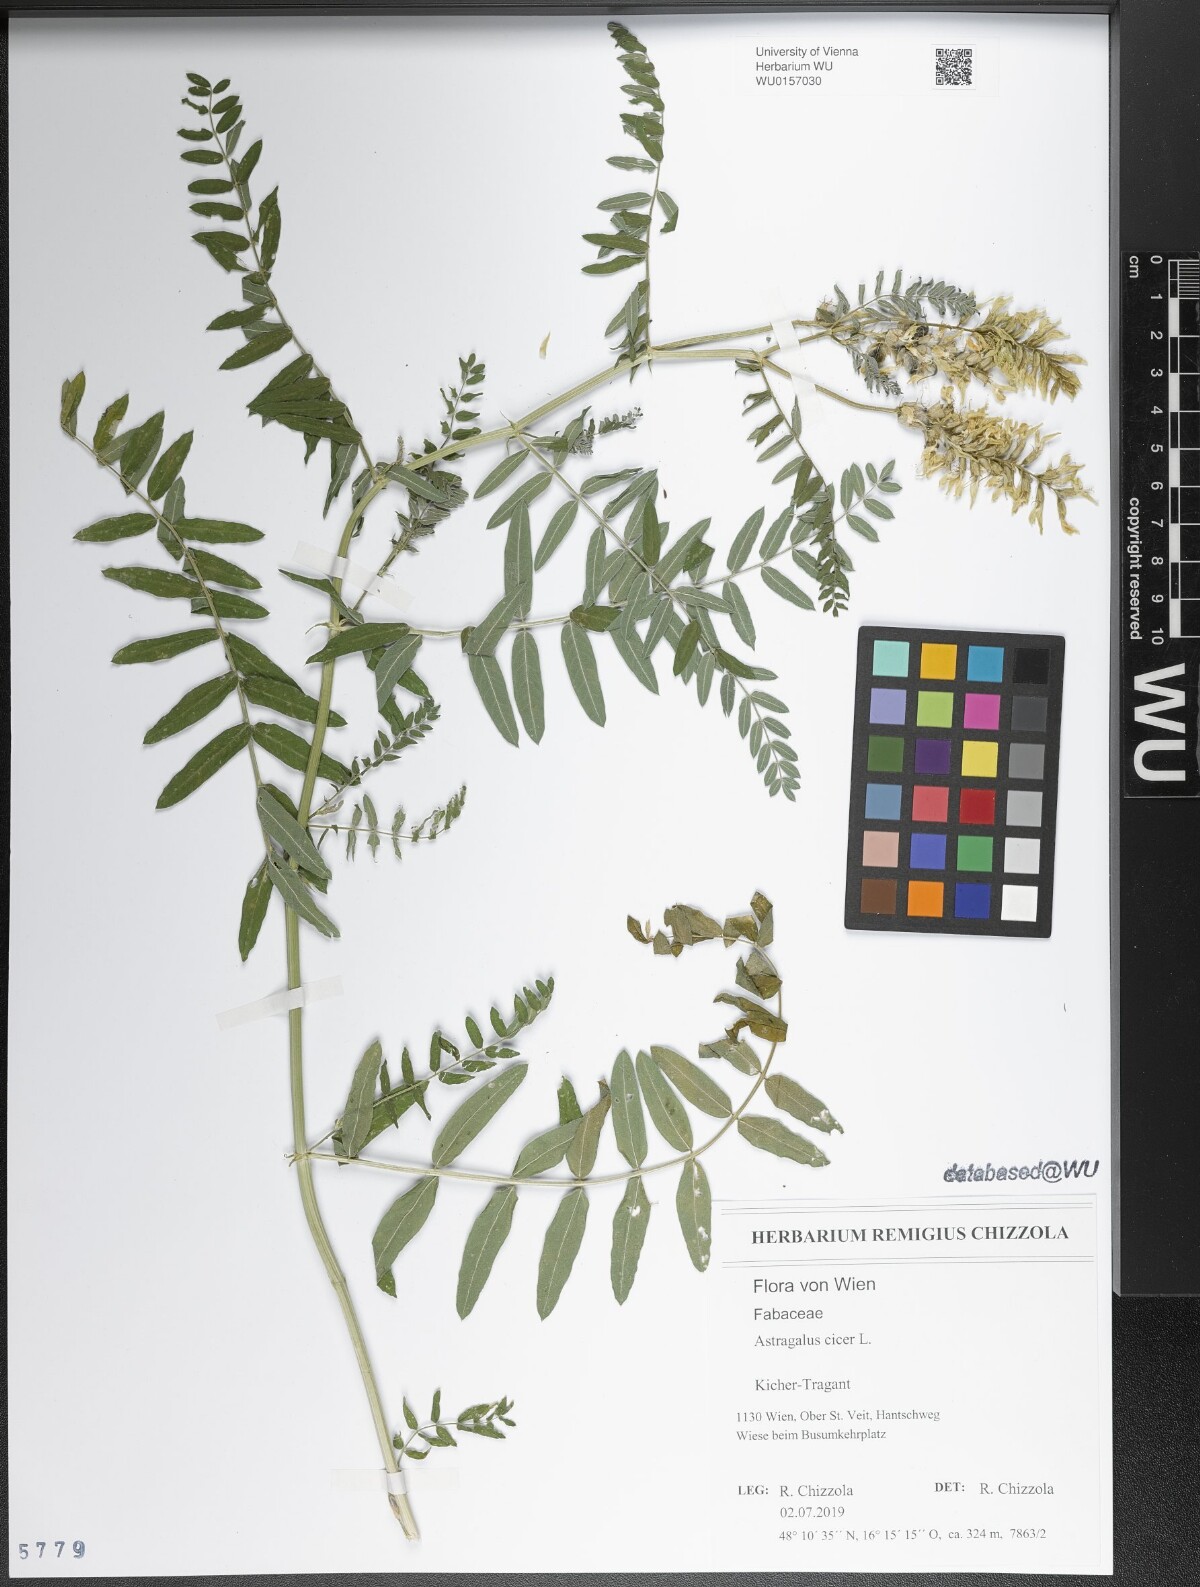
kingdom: Plantae
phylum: Tracheophyta
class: Magnoliopsida
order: Fabales
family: Fabaceae
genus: Astragalus
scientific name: Astragalus cicer
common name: Chick-pea milk-vetch
